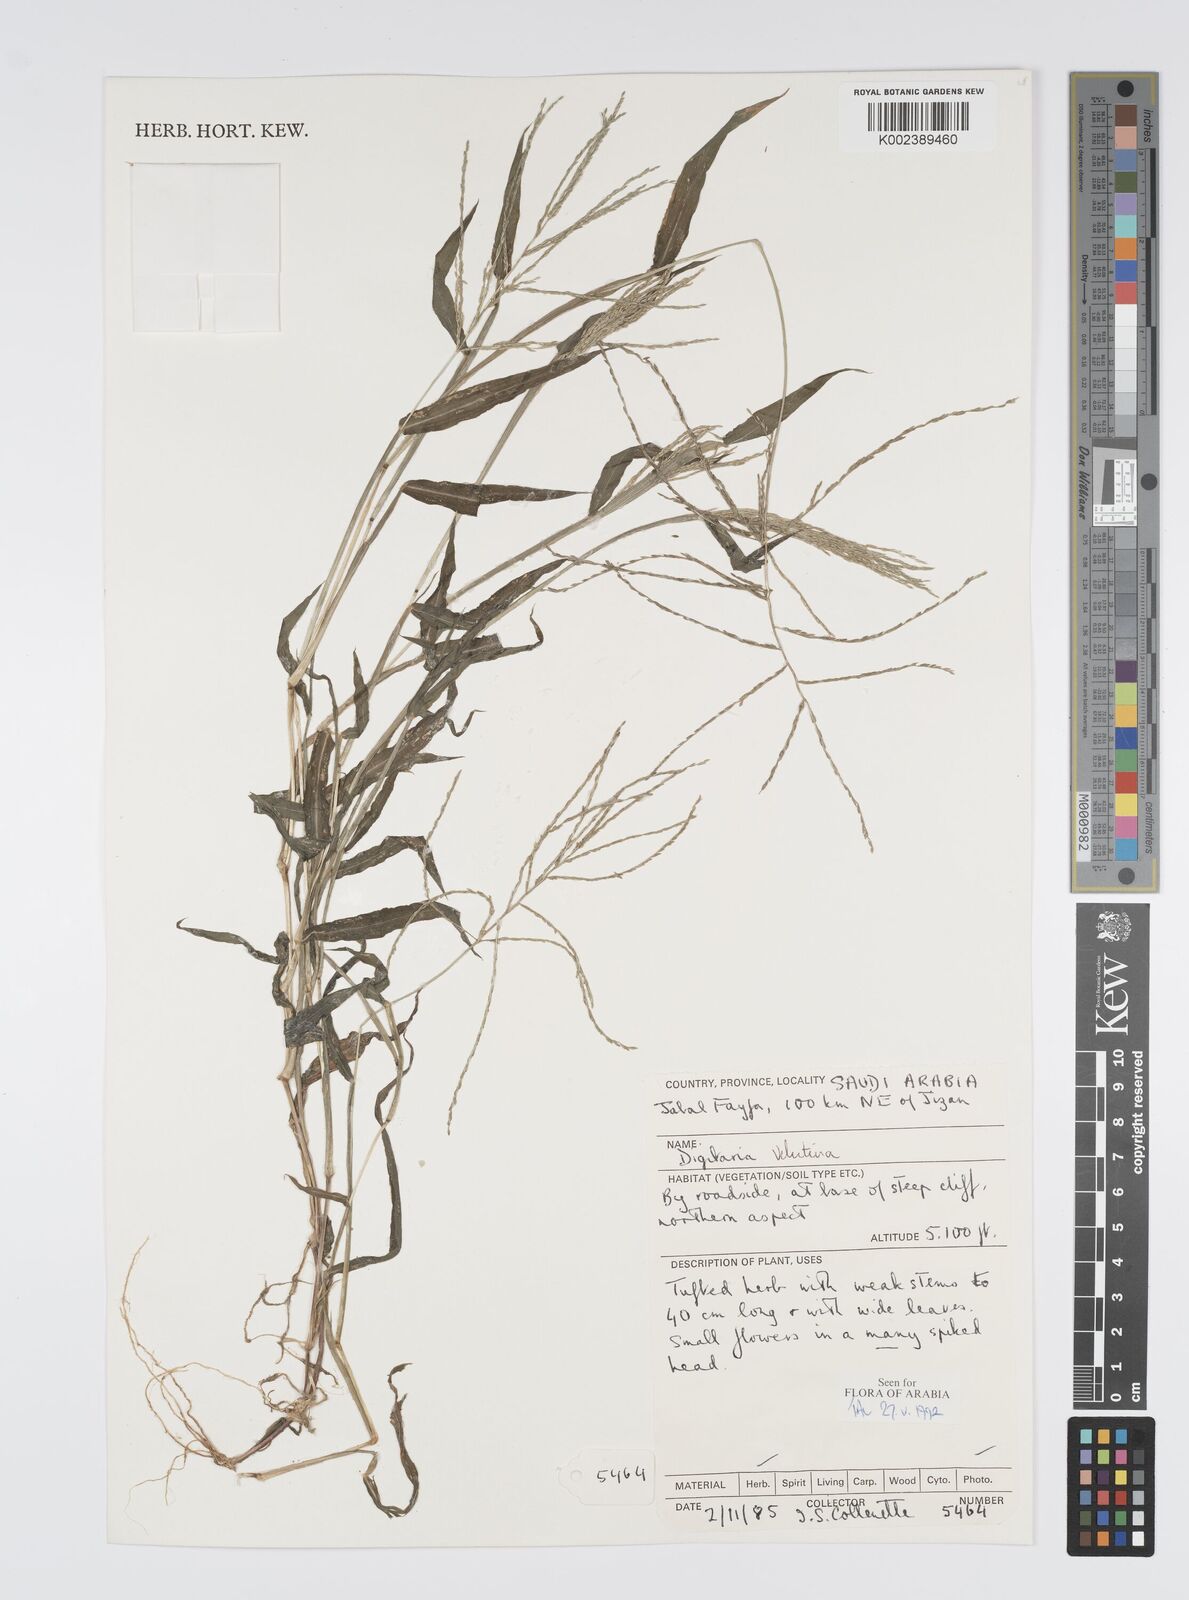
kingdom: Plantae
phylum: Tracheophyta
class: Liliopsida
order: Poales
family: Poaceae
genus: Digitaria
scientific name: Digitaria spec
